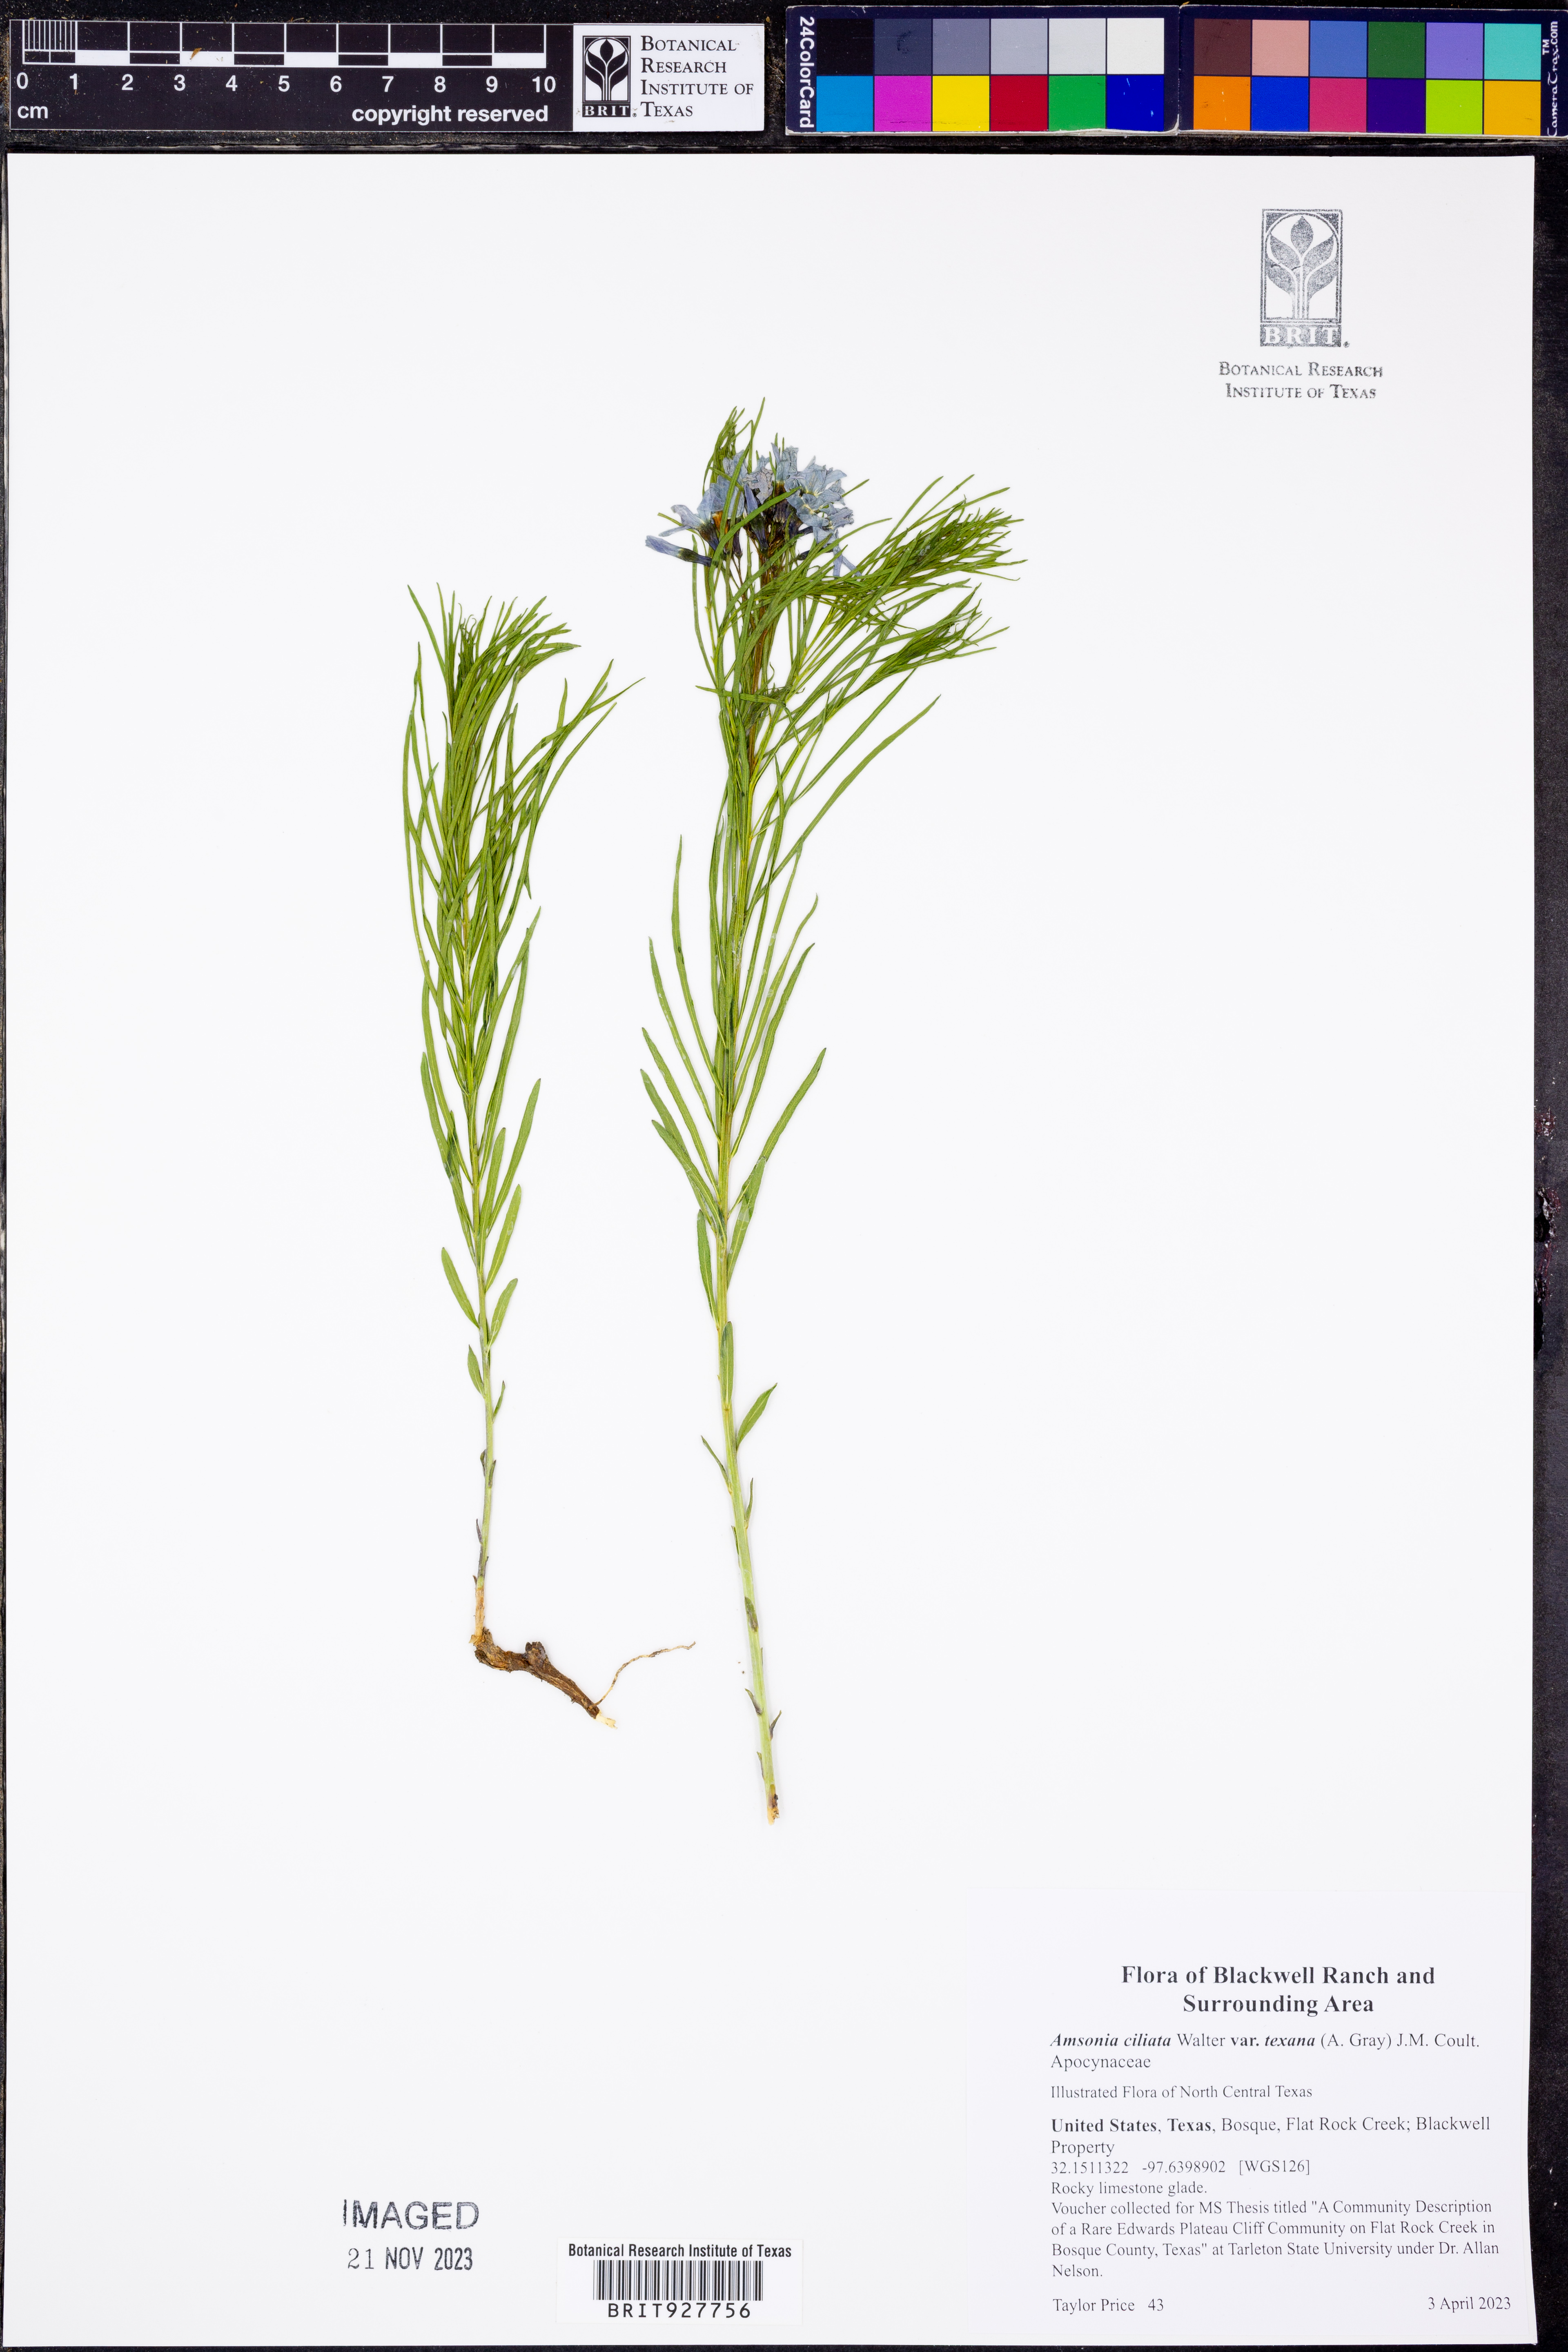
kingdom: Plantae
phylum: Tracheophyta
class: Magnoliopsida
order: Gentianales
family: Apocynaceae
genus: Amsonia
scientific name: Amsonia ciliata
